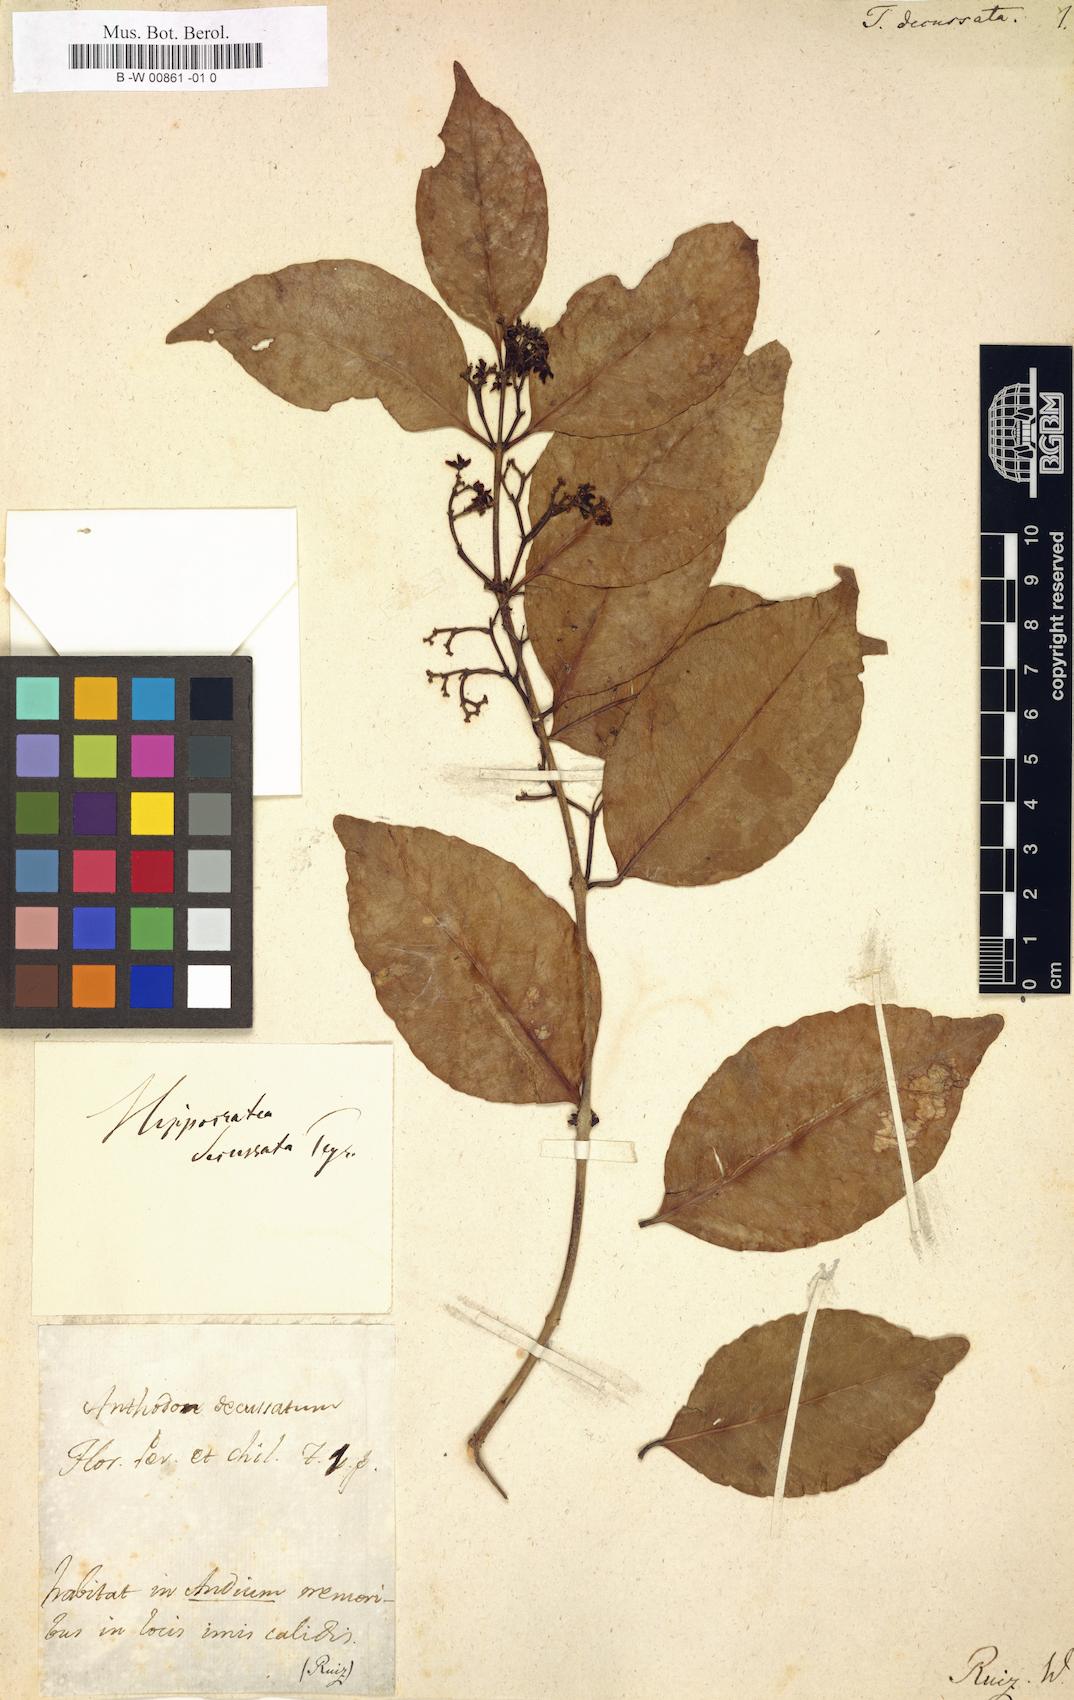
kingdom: Plantae
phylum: Tracheophyta
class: Magnoliopsida
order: Celastrales
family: Celastraceae
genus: Anthodon
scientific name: Anthodon decussatum
